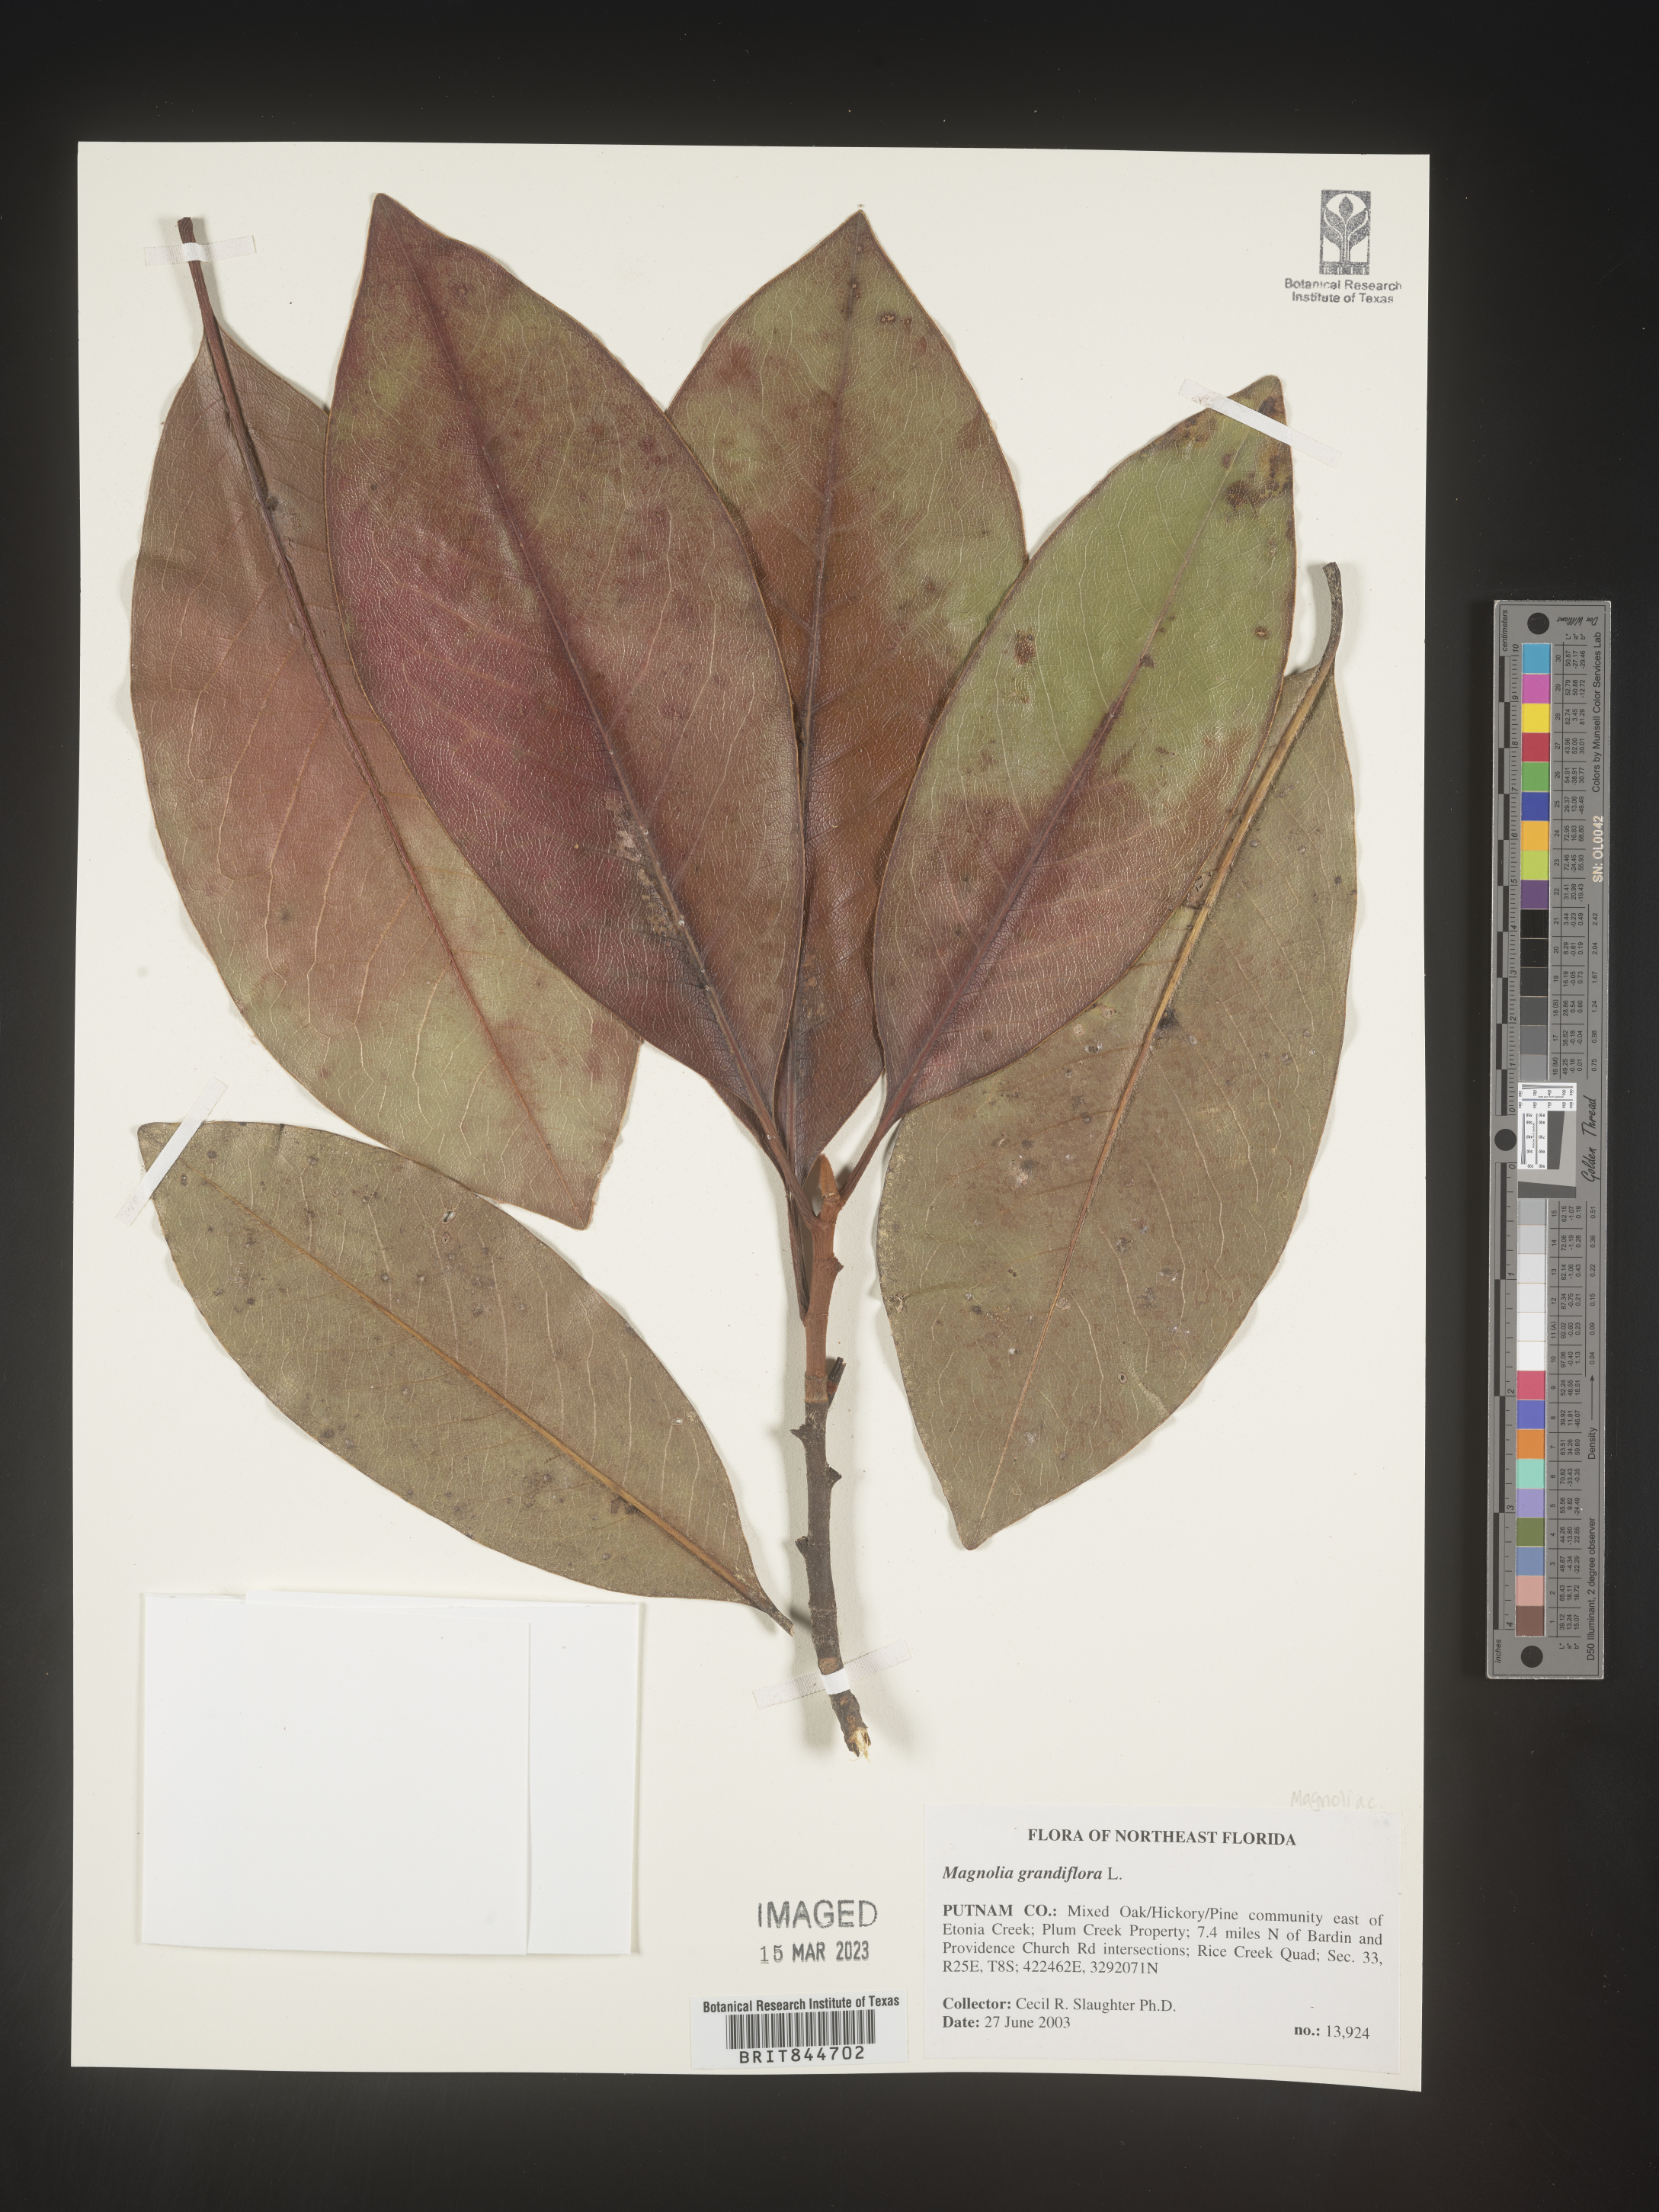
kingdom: Plantae
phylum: Tracheophyta
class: Magnoliopsida
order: Magnoliales
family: Magnoliaceae
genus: Magnolia
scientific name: Magnolia grandiflora
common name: Southern magnolia
